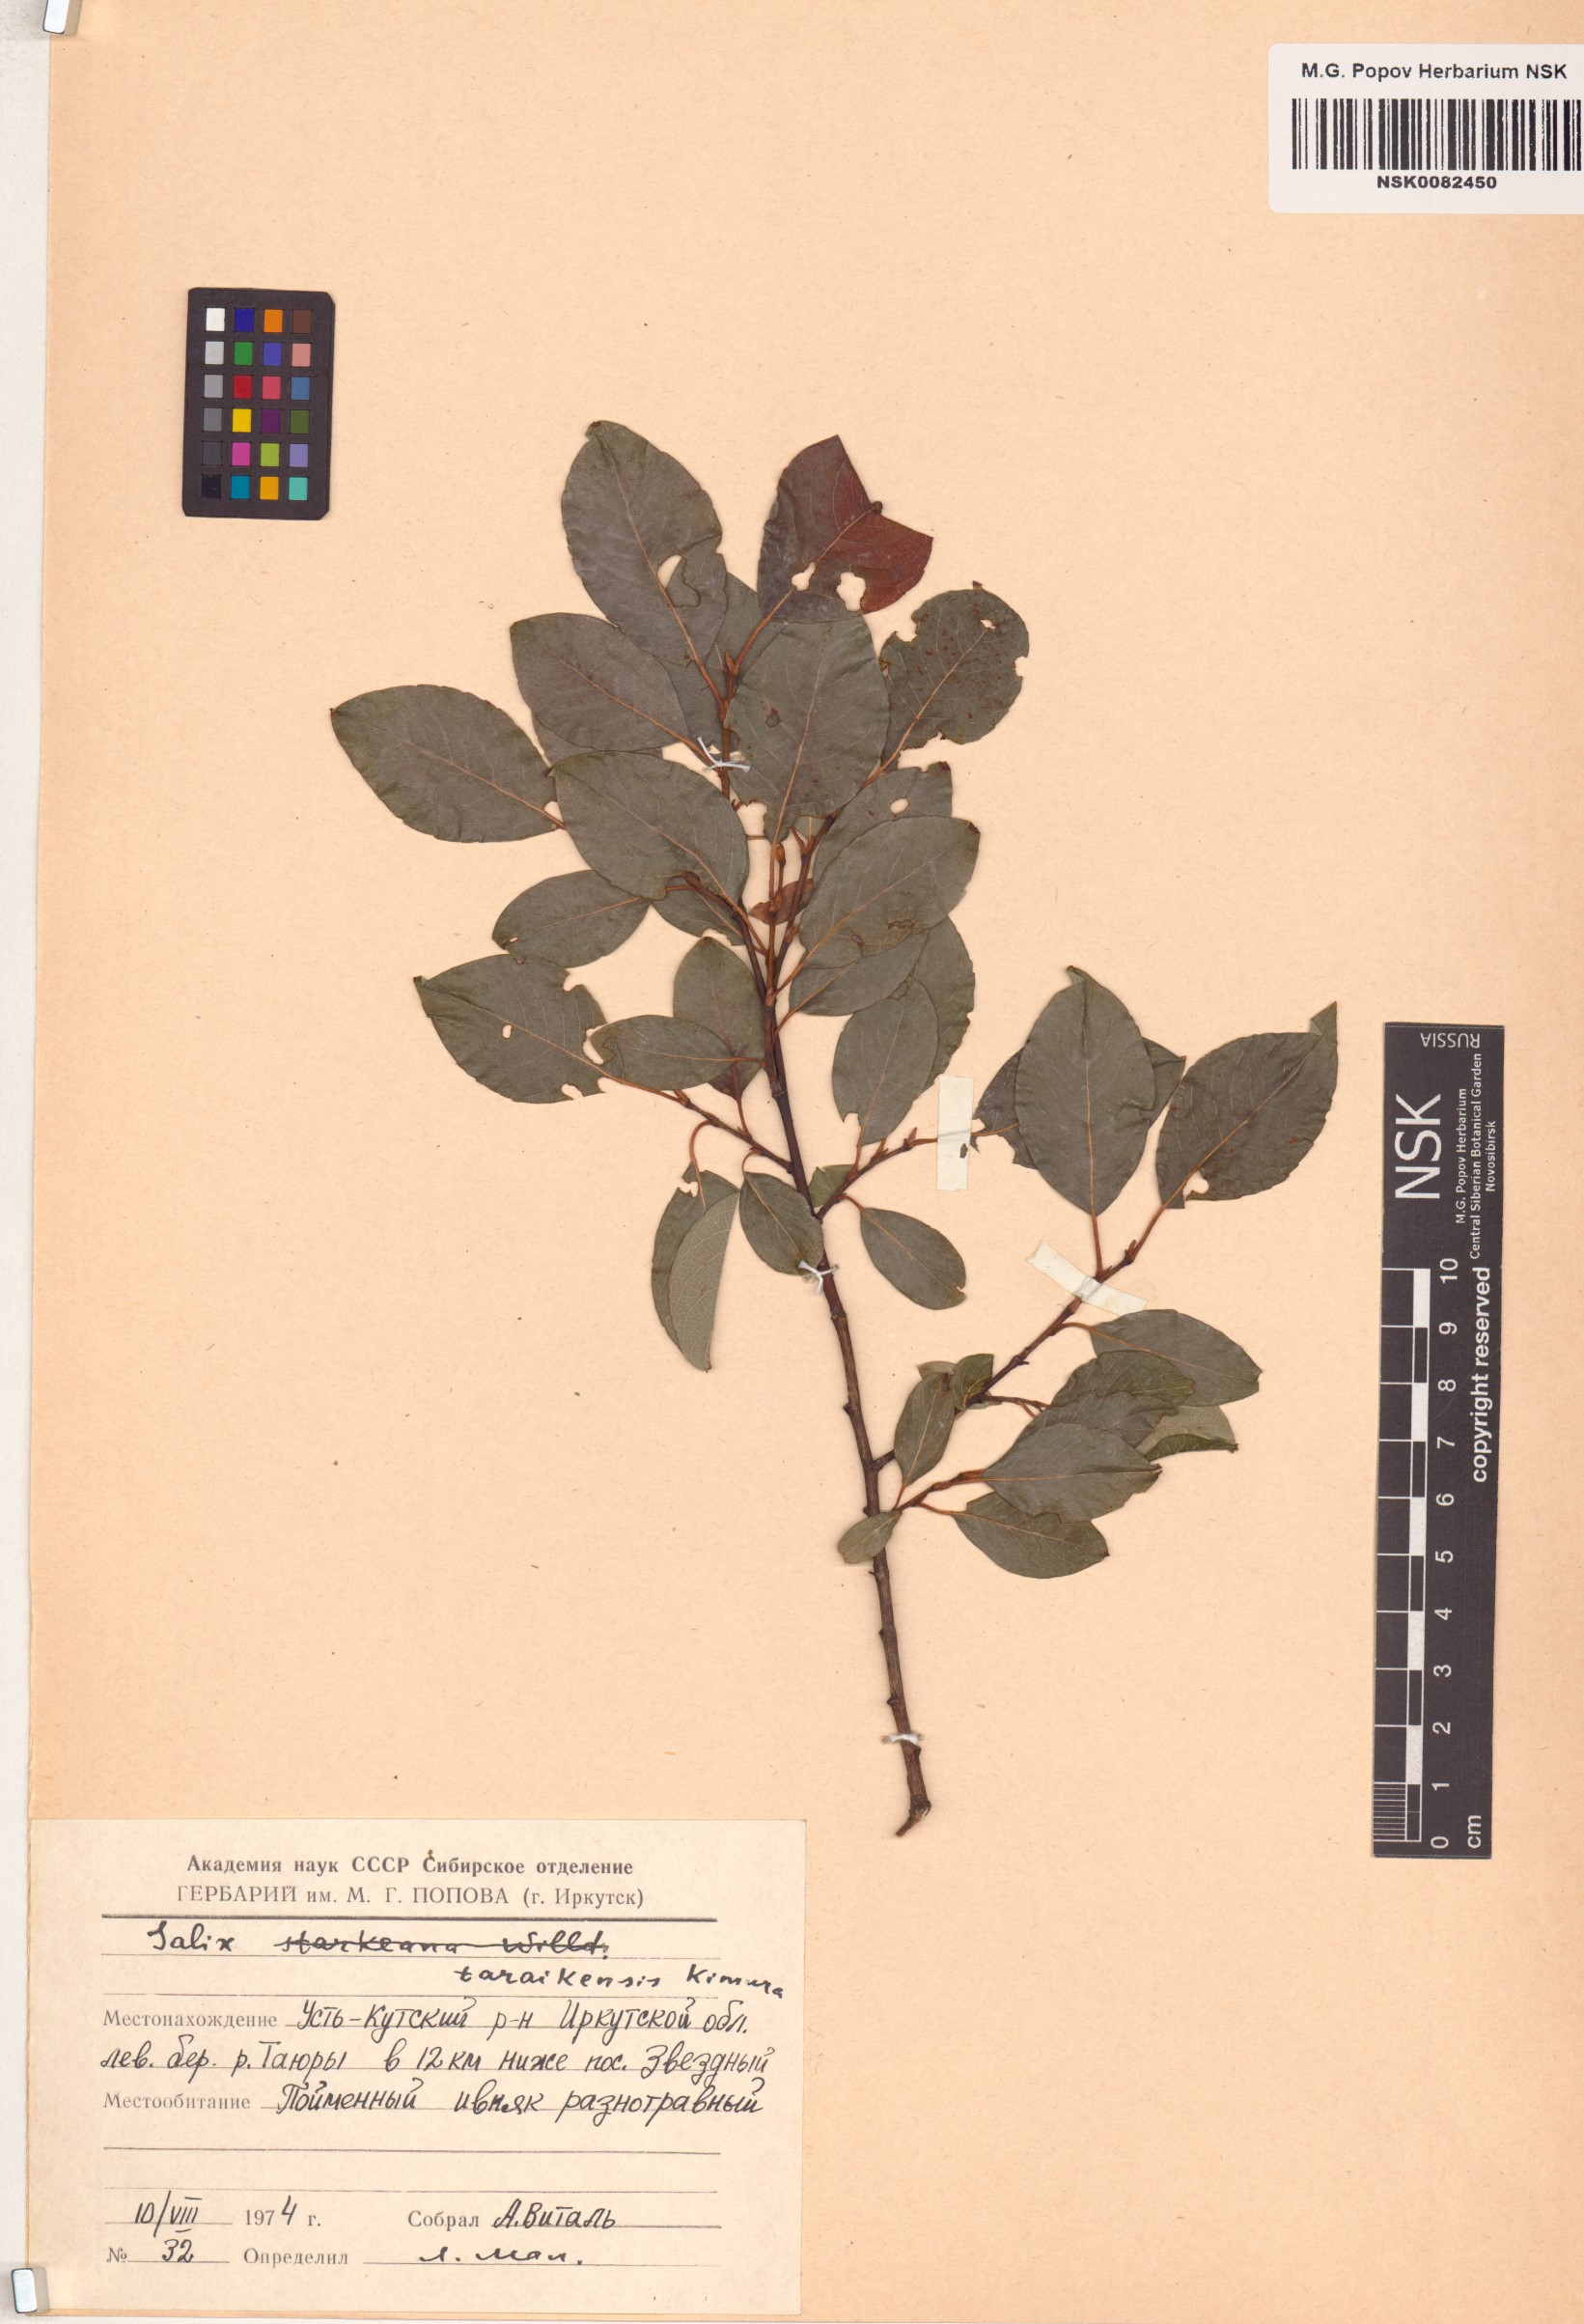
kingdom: Plantae
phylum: Tracheophyta
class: Magnoliopsida
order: Malpighiales
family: Salicaceae
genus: Salix
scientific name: Salix taraikensis
